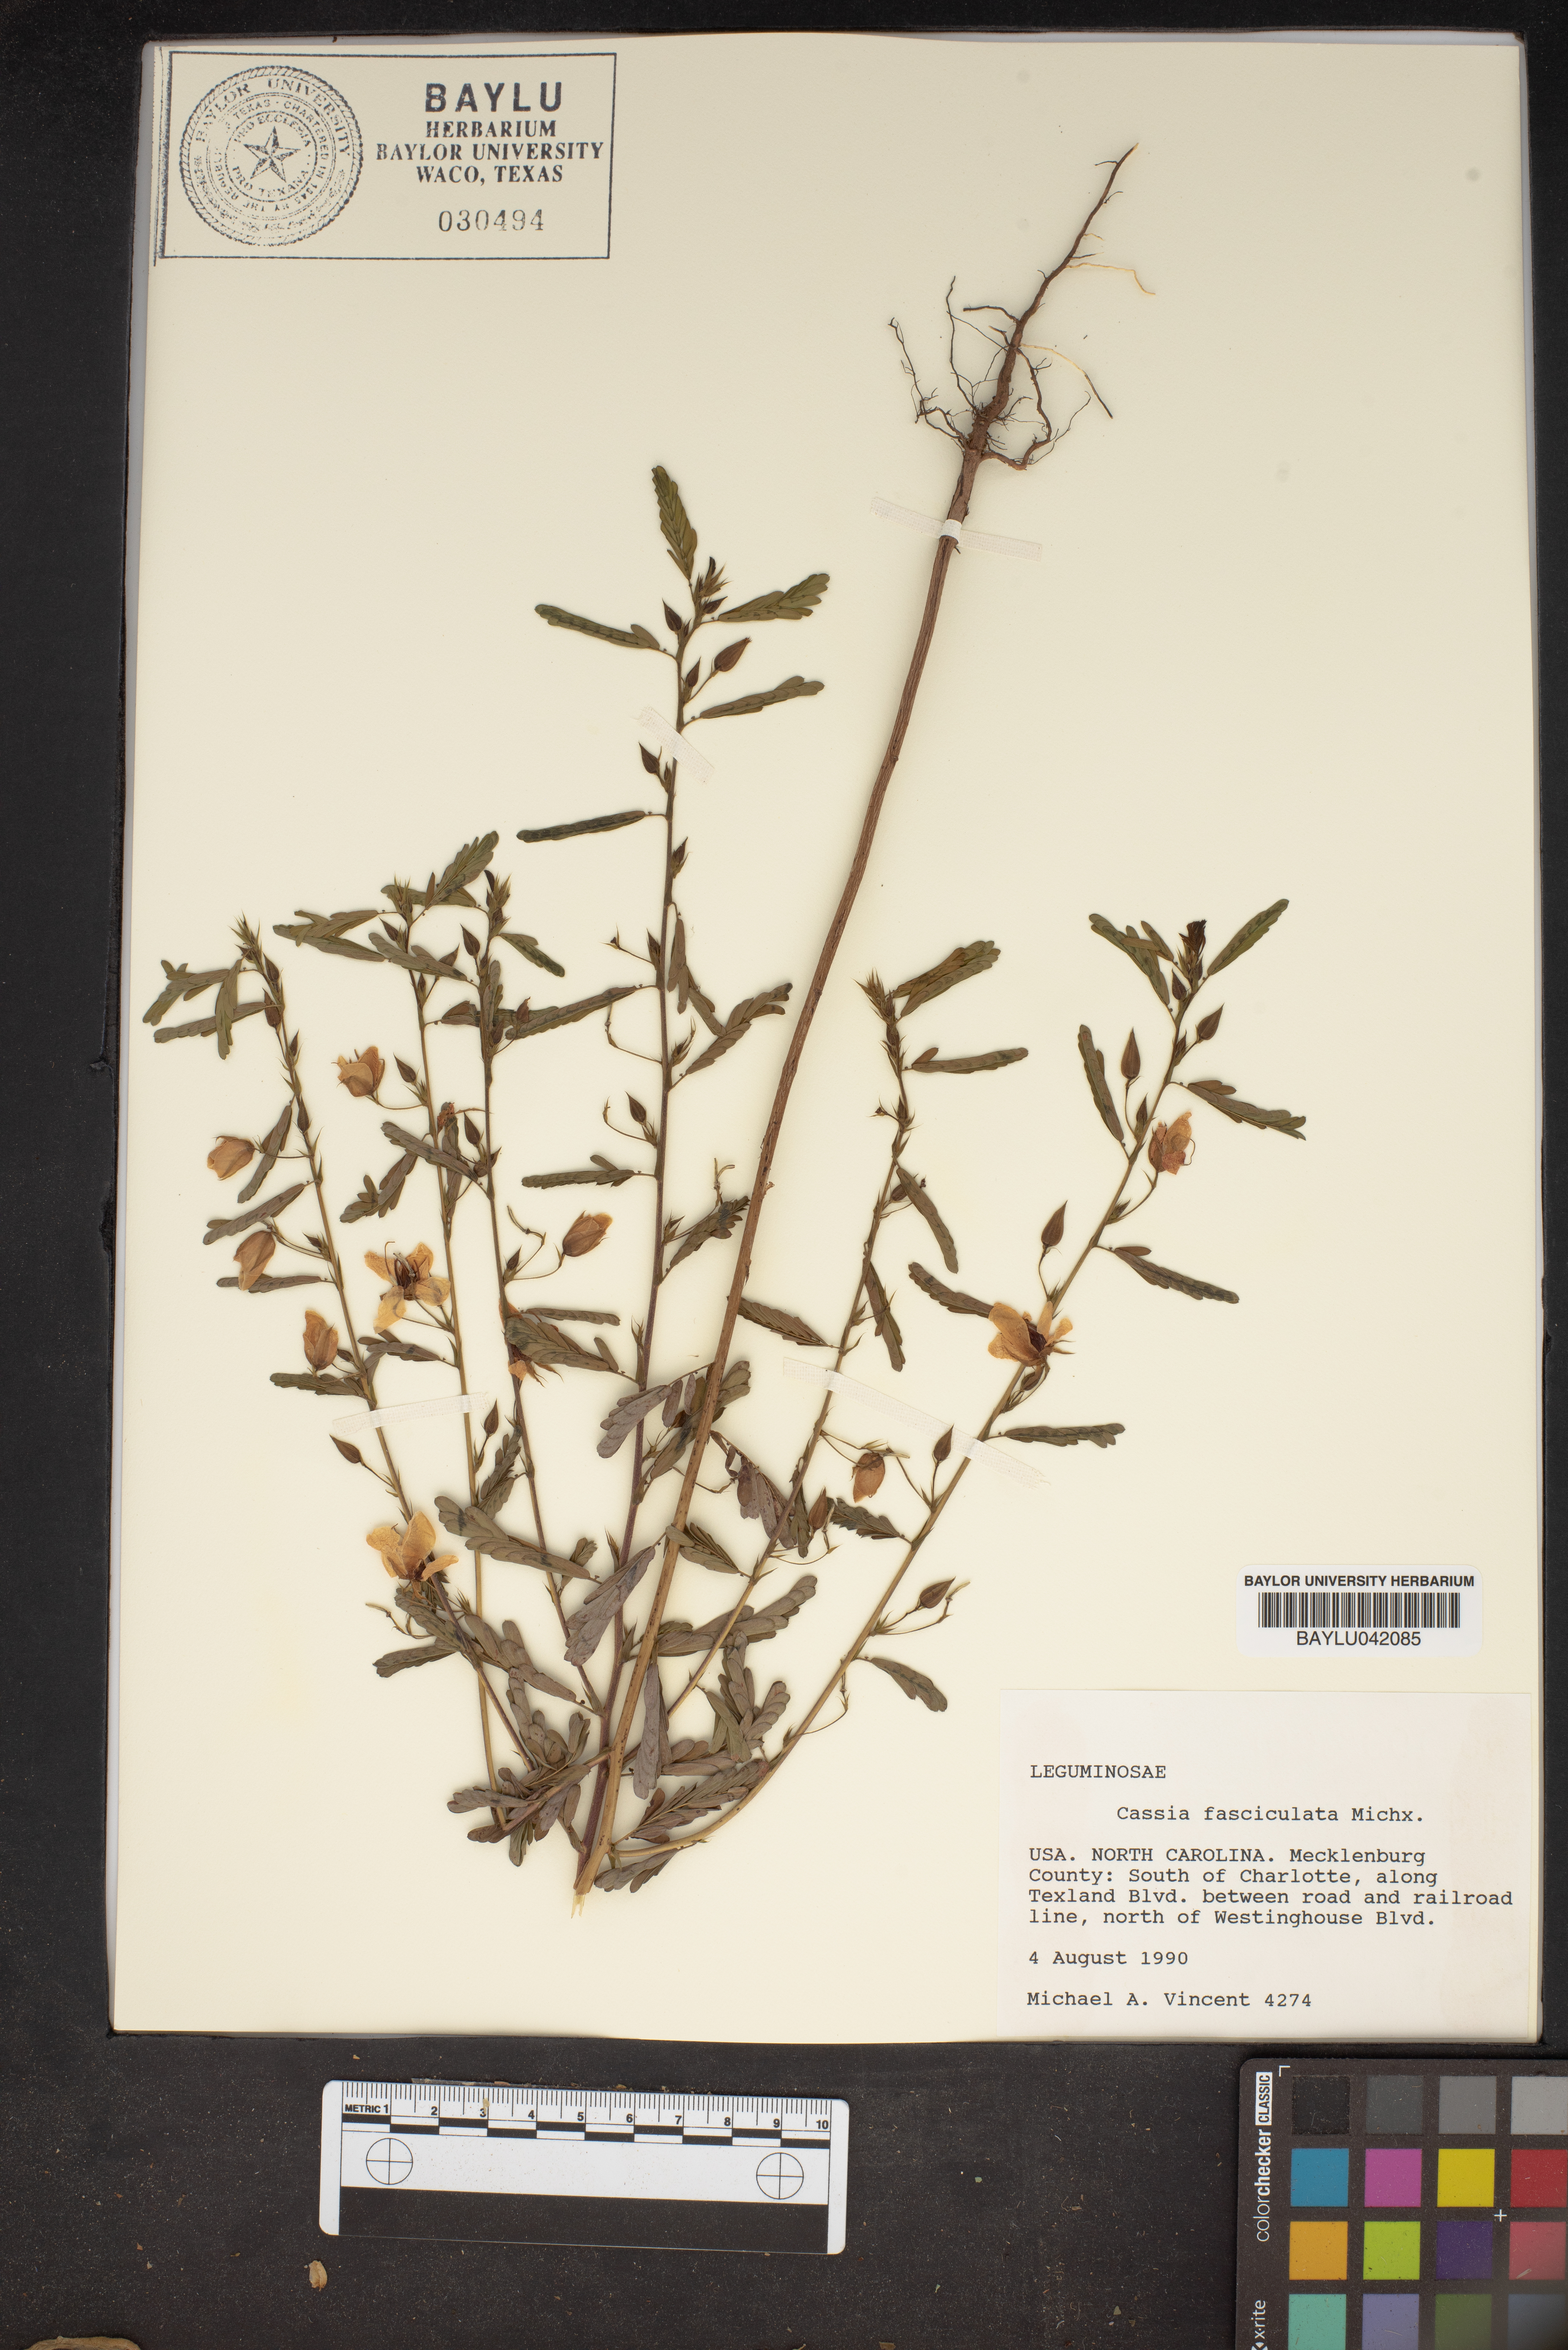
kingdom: Plantae
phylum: Tracheophyta
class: Magnoliopsida
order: Fabales
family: Fabaceae
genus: Chamaecrista
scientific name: Chamaecrista fasciculata
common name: Golden cassia
